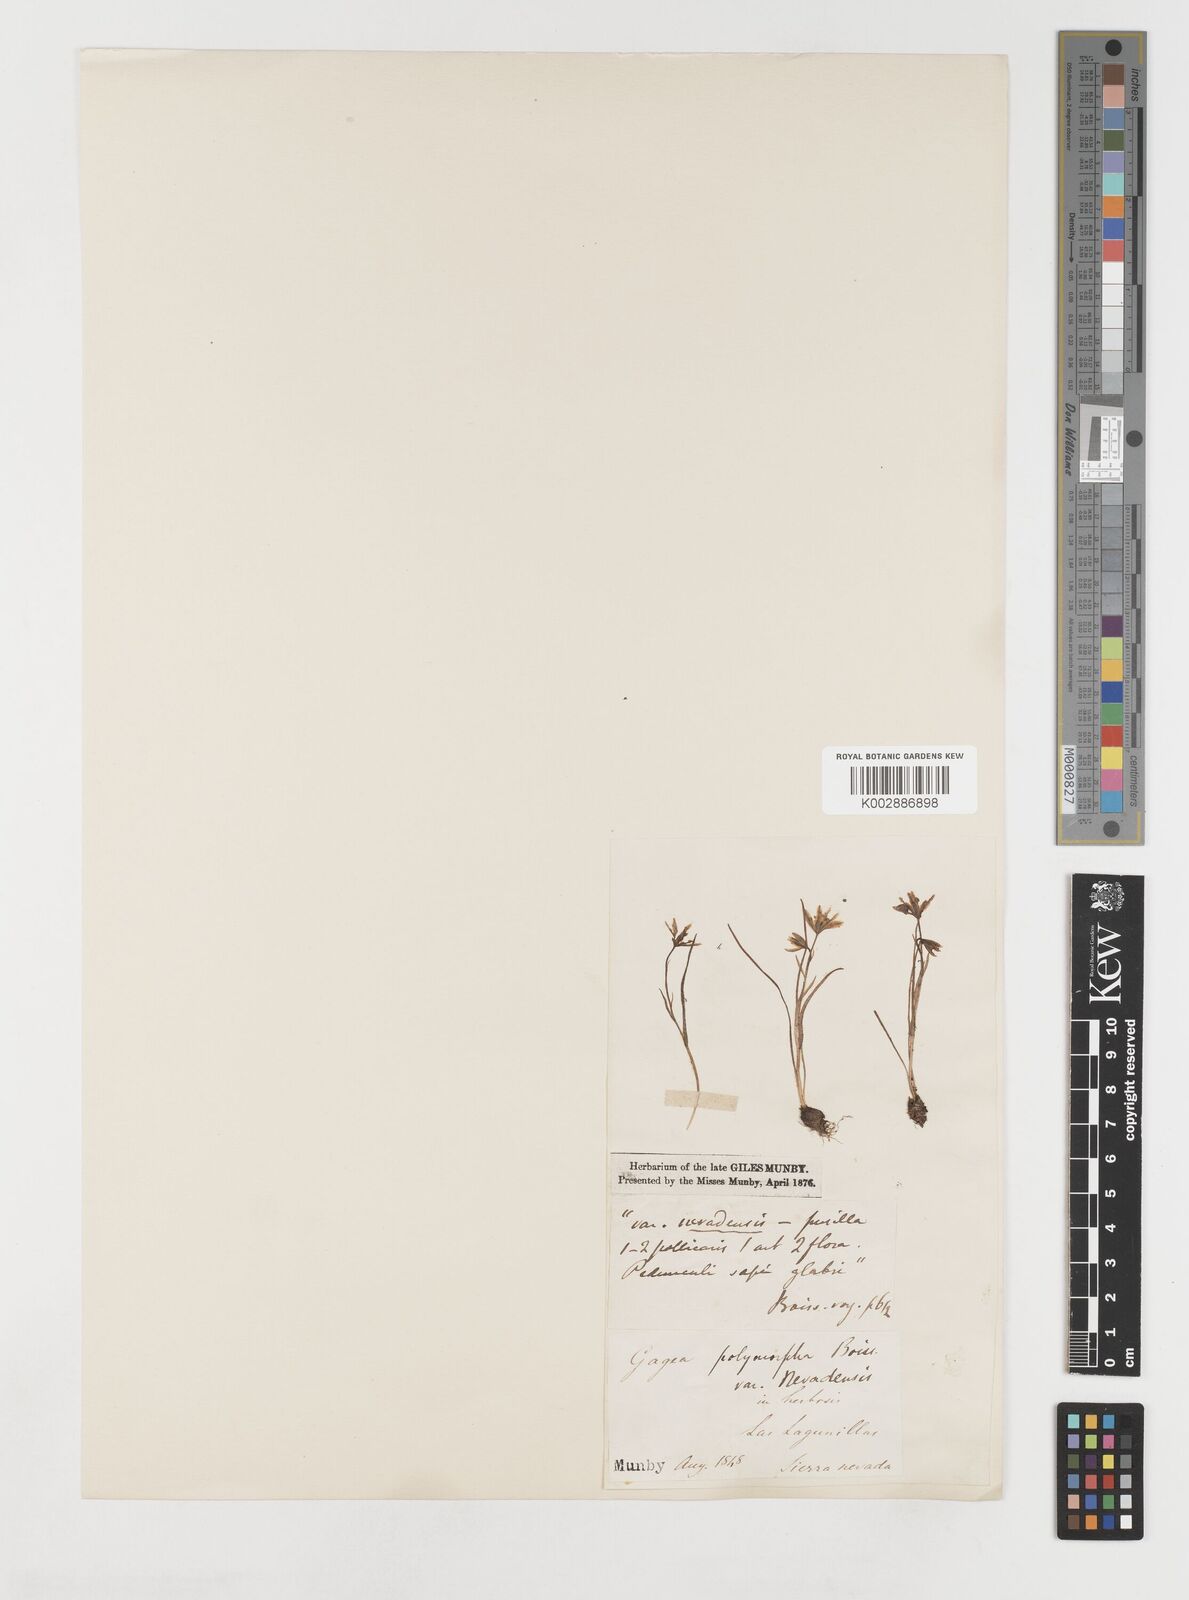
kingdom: Plantae
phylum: Tracheophyta
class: Liliopsida
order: Liliales
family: Liliaceae
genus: Gagea
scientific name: Gagea nevadensis
